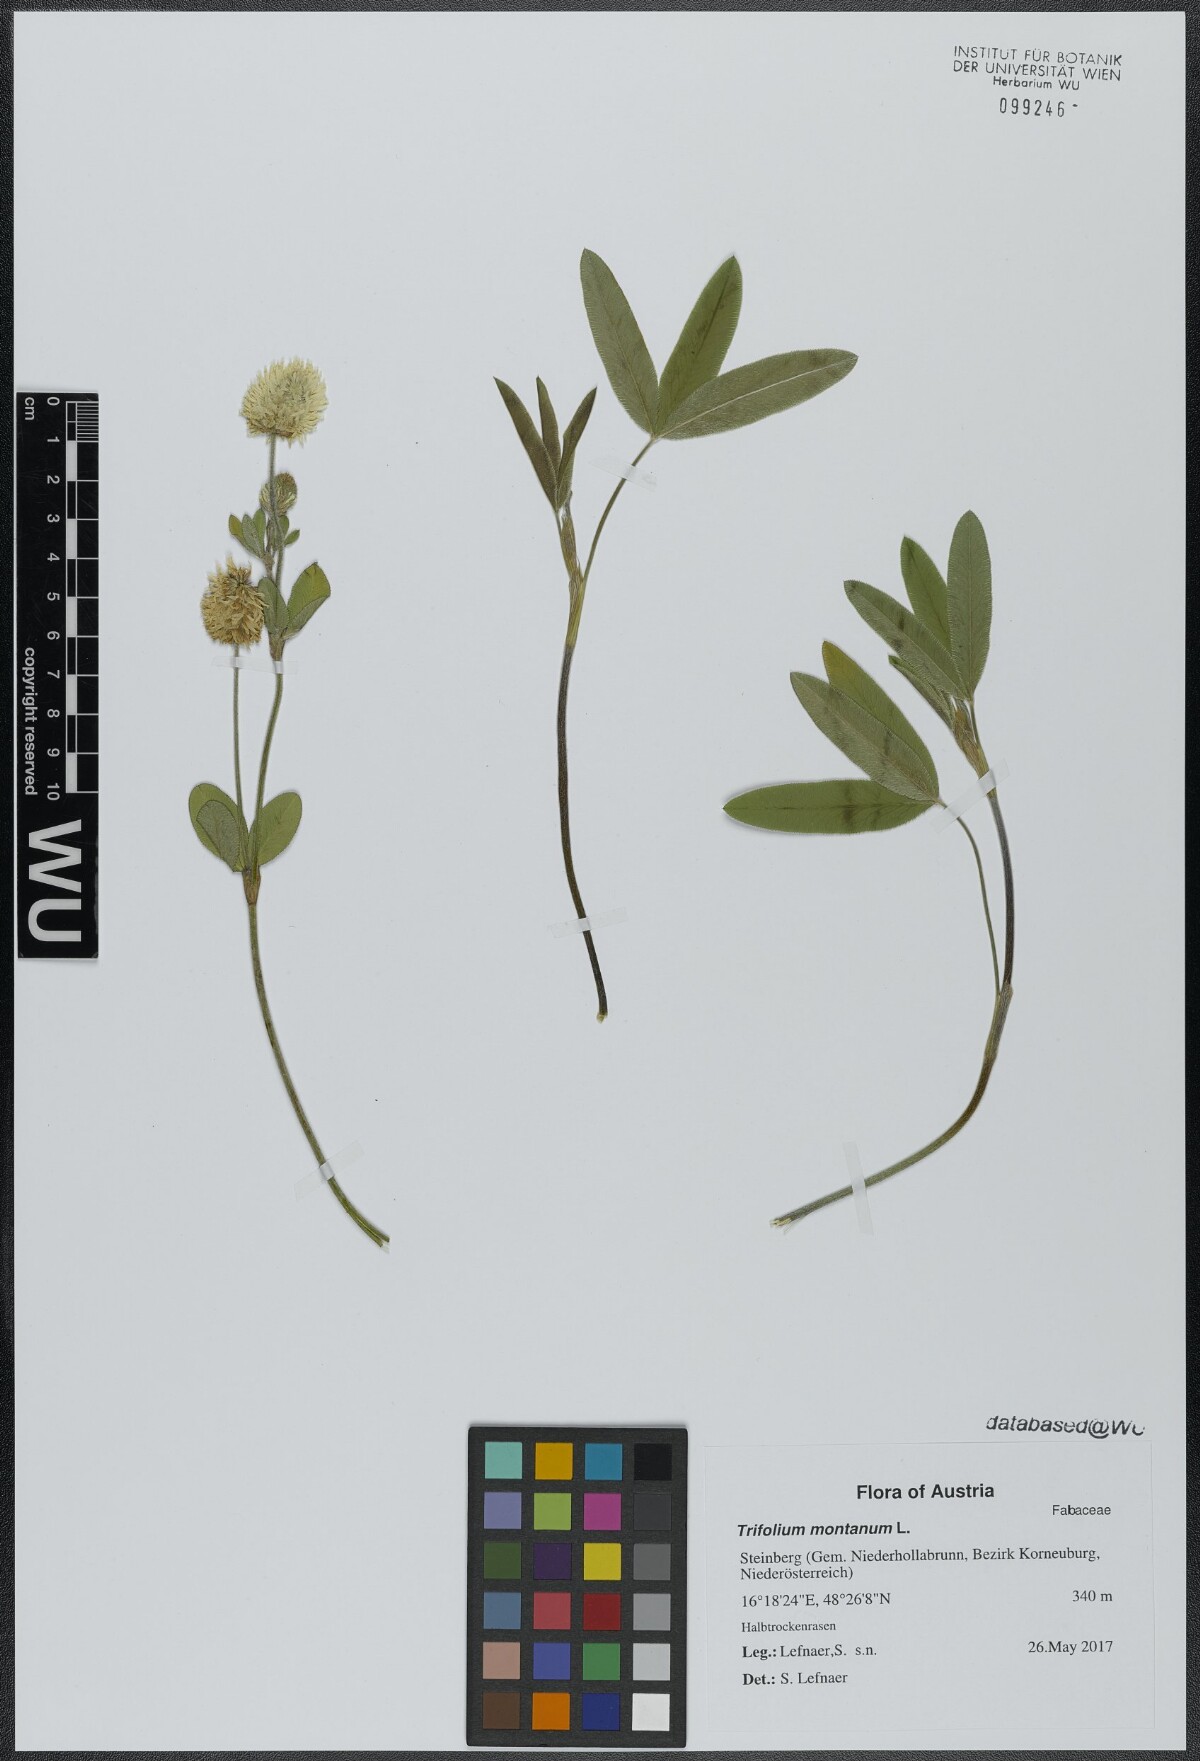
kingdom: Plantae
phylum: Tracheophyta
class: Magnoliopsida
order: Fabales
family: Fabaceae
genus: Trifolium
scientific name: Trifolium montanum
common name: Mountain clover
